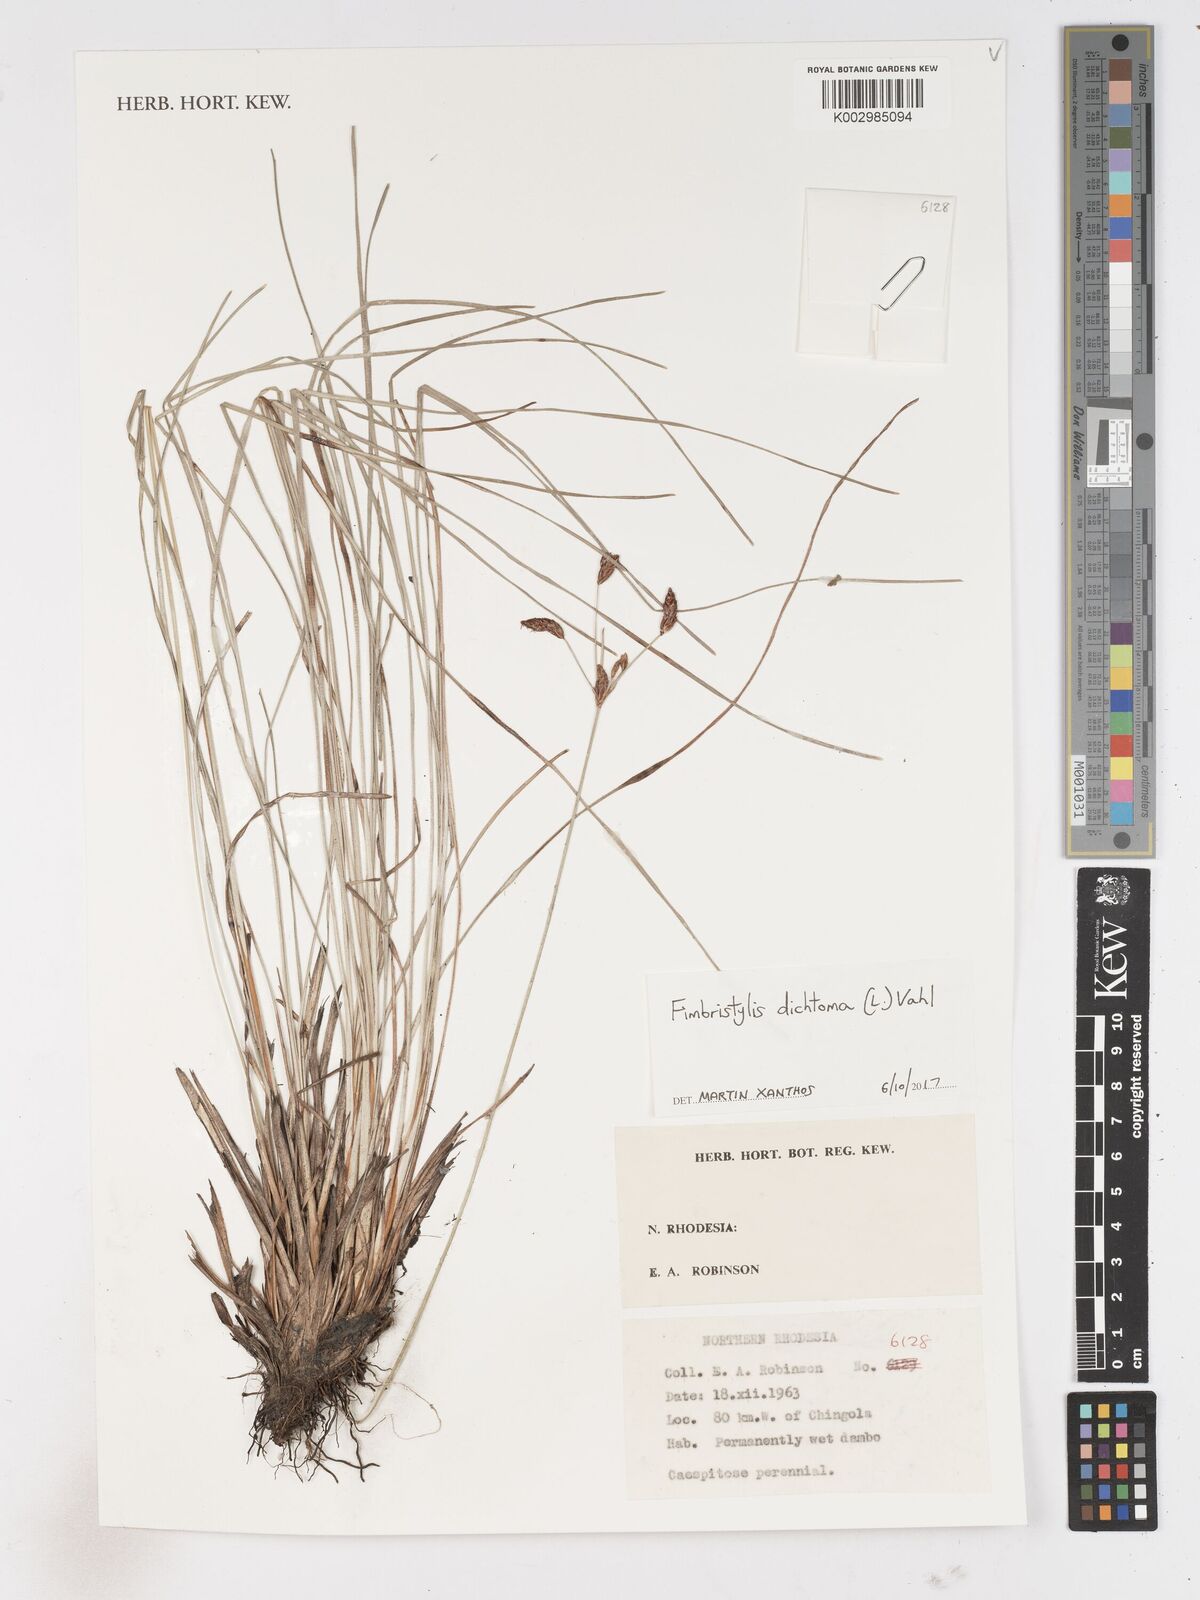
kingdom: Plantae
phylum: Tracheophyta
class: Liliopsida
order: Poales
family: Cyperaceae
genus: Fimbristylis
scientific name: Fimbristylis dichotoma
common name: Forked fimbry
